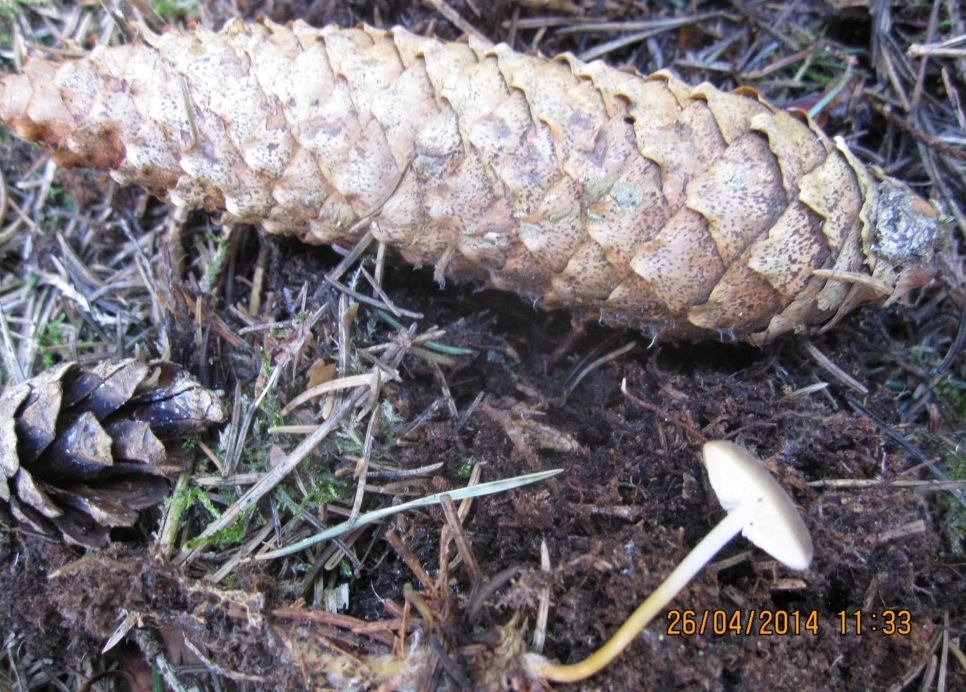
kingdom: Fungi
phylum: Basidiomycota
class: Agaricomycetes
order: Agaricales
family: Physalacriaceae
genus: Strobilurus
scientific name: Strobilurus tenacellus
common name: sommer-koglehat
